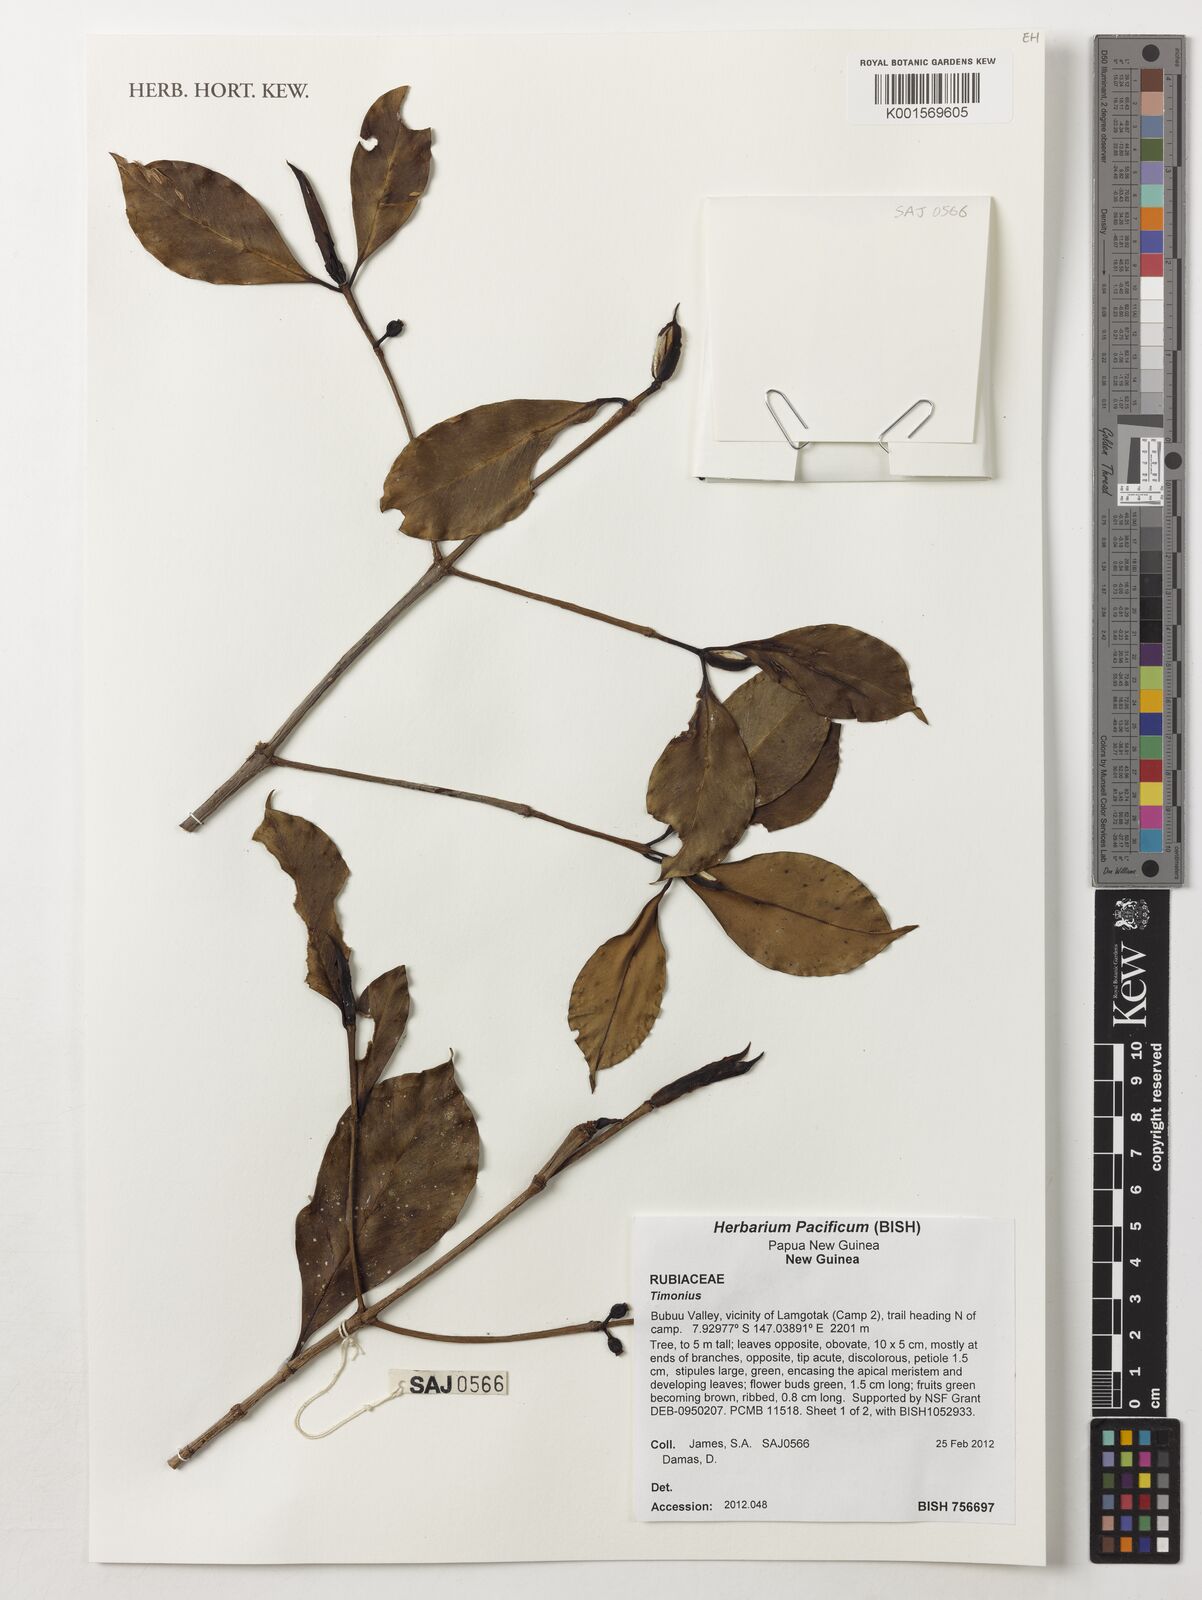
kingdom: Plantae
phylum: Tracheophyta
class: Magnoliopsida
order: Gentianales
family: Rubiaceae
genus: Timonius
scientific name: Timonius
